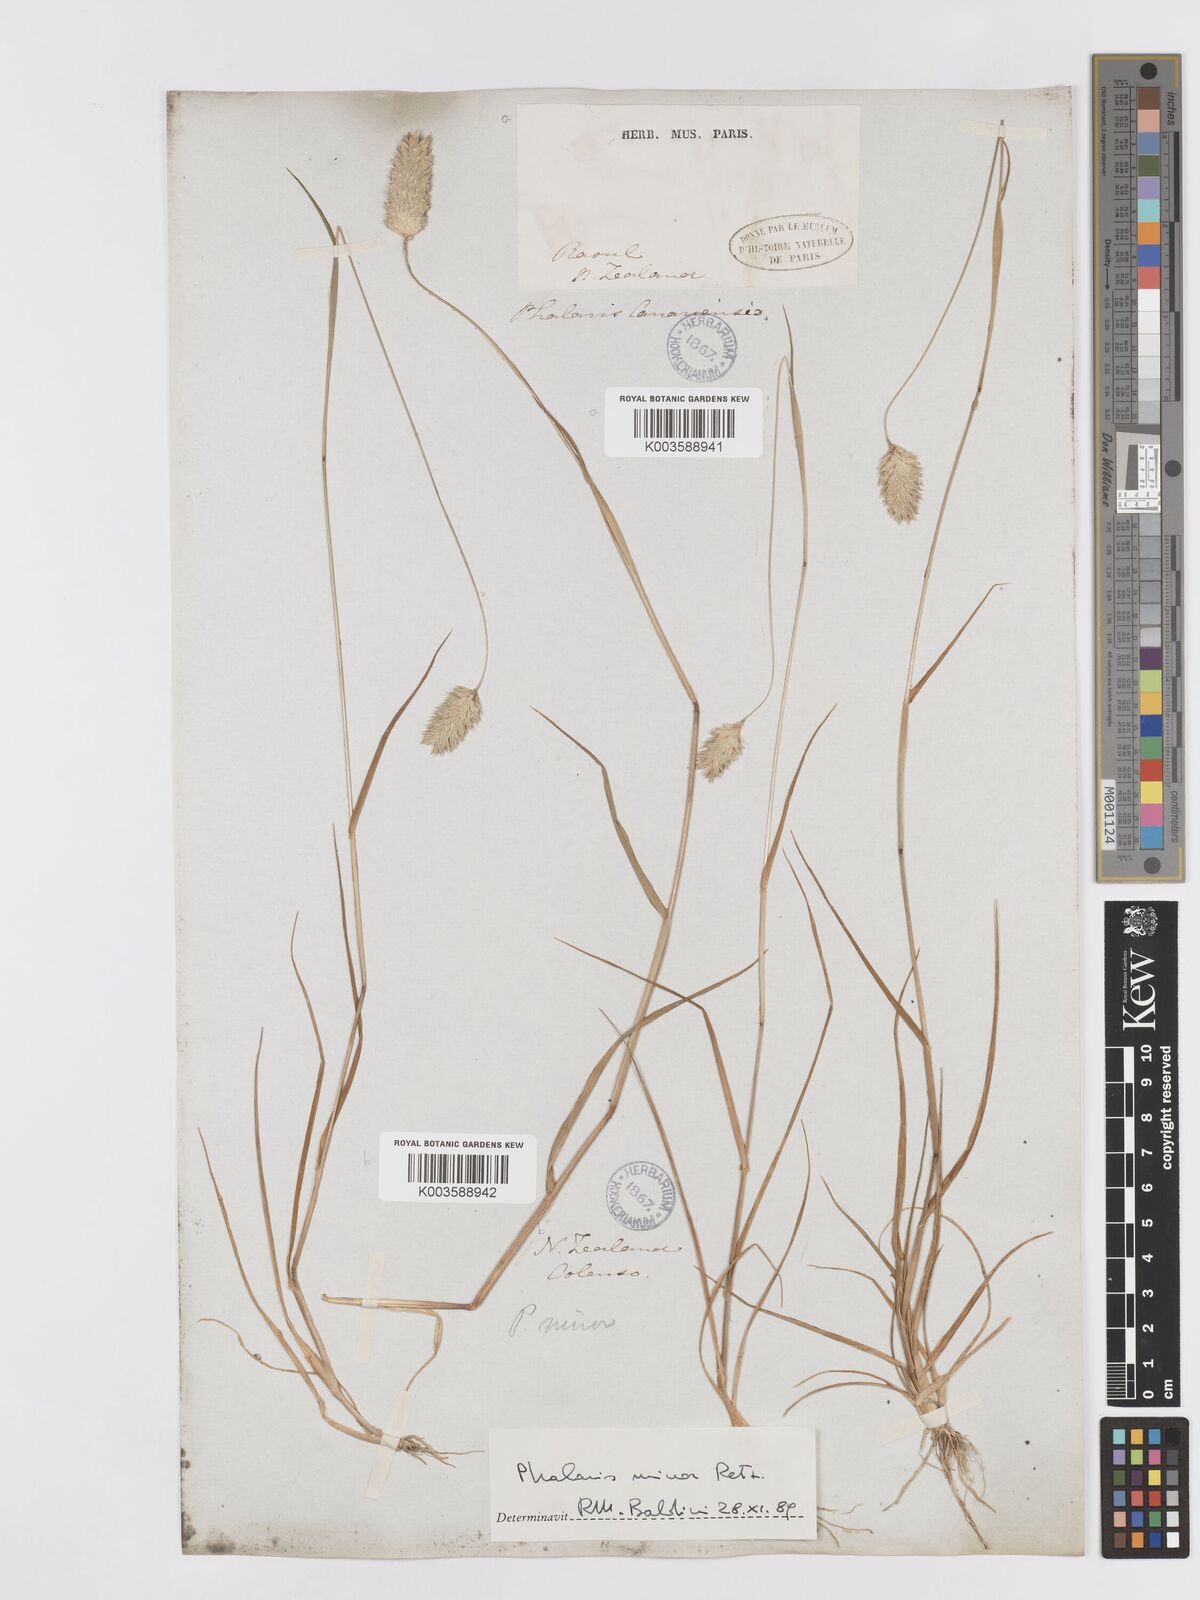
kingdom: Plantae
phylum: Tracheophyta
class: Liliopsida
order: Poales
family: Poaceae
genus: Phalaris
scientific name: Phalaris minor
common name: Littleseed canarygrass
